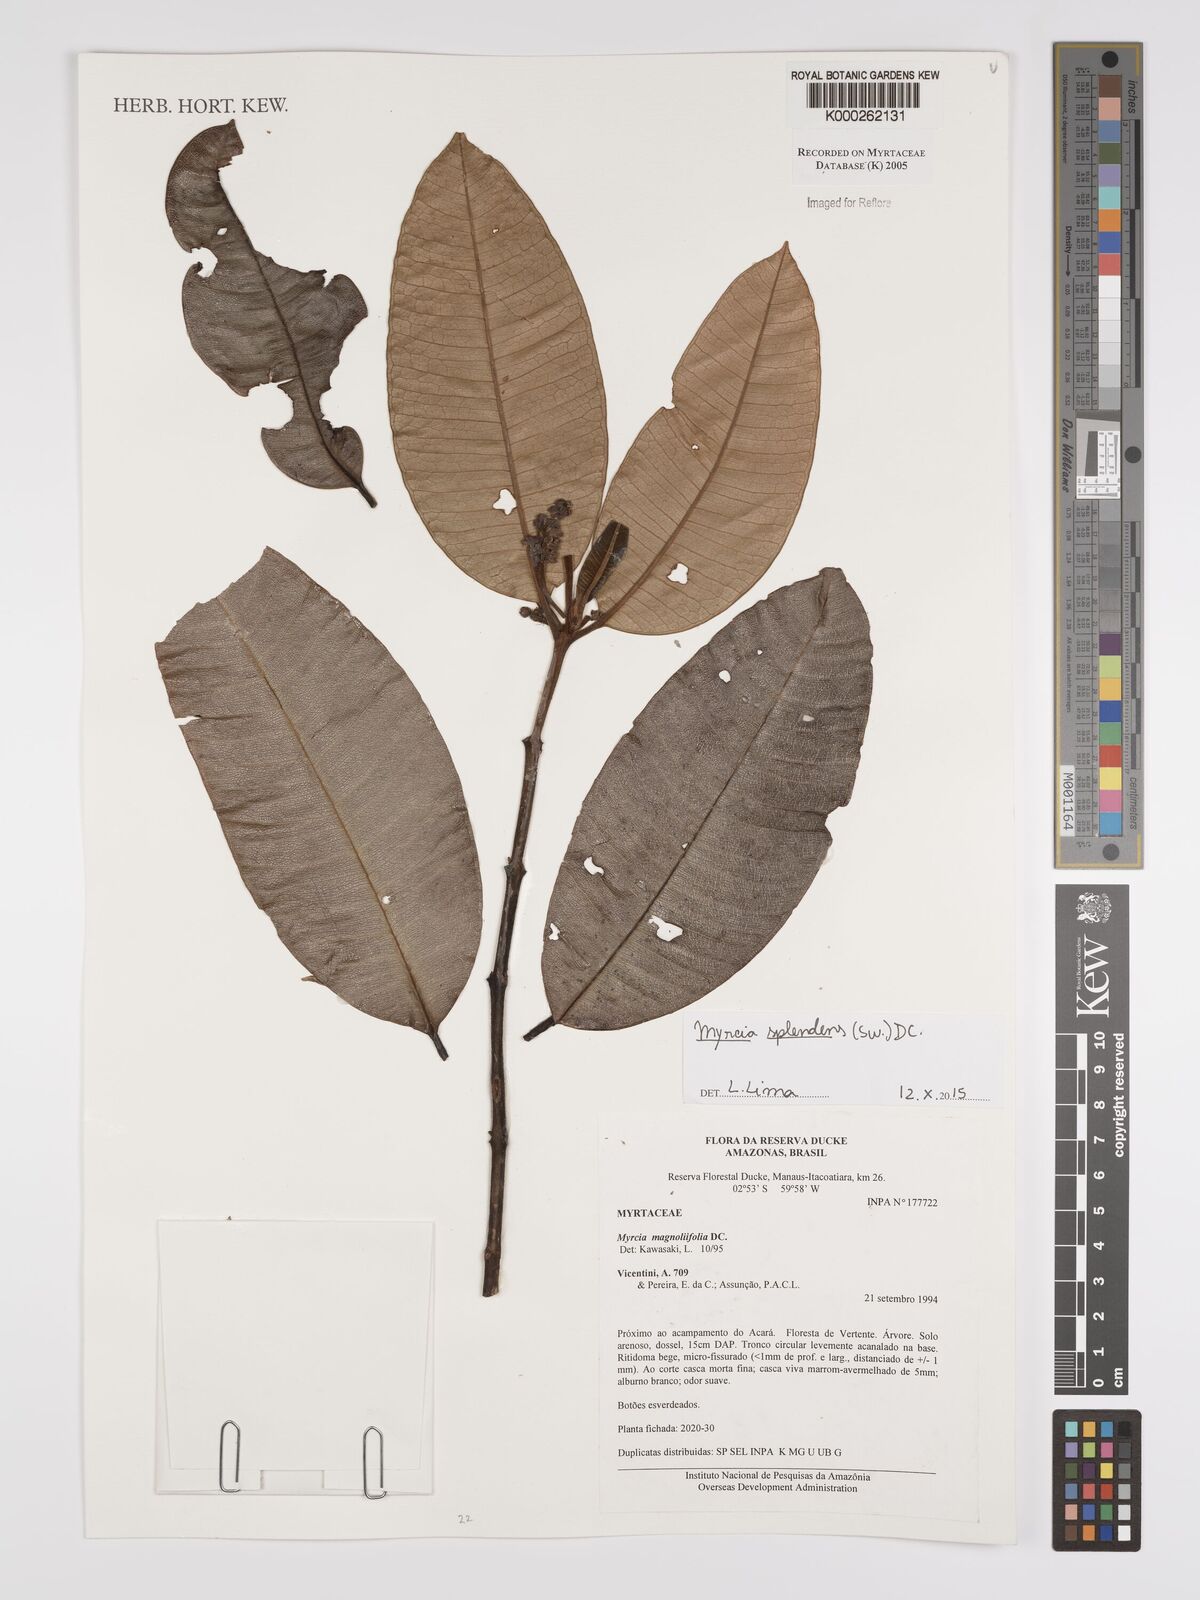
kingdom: Plantae
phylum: Tracheophyta
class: Magnoliopsida
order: Myrtales
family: Myrtaceae
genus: Myrcia
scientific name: Myrcia splendens
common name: Surinam cherry
